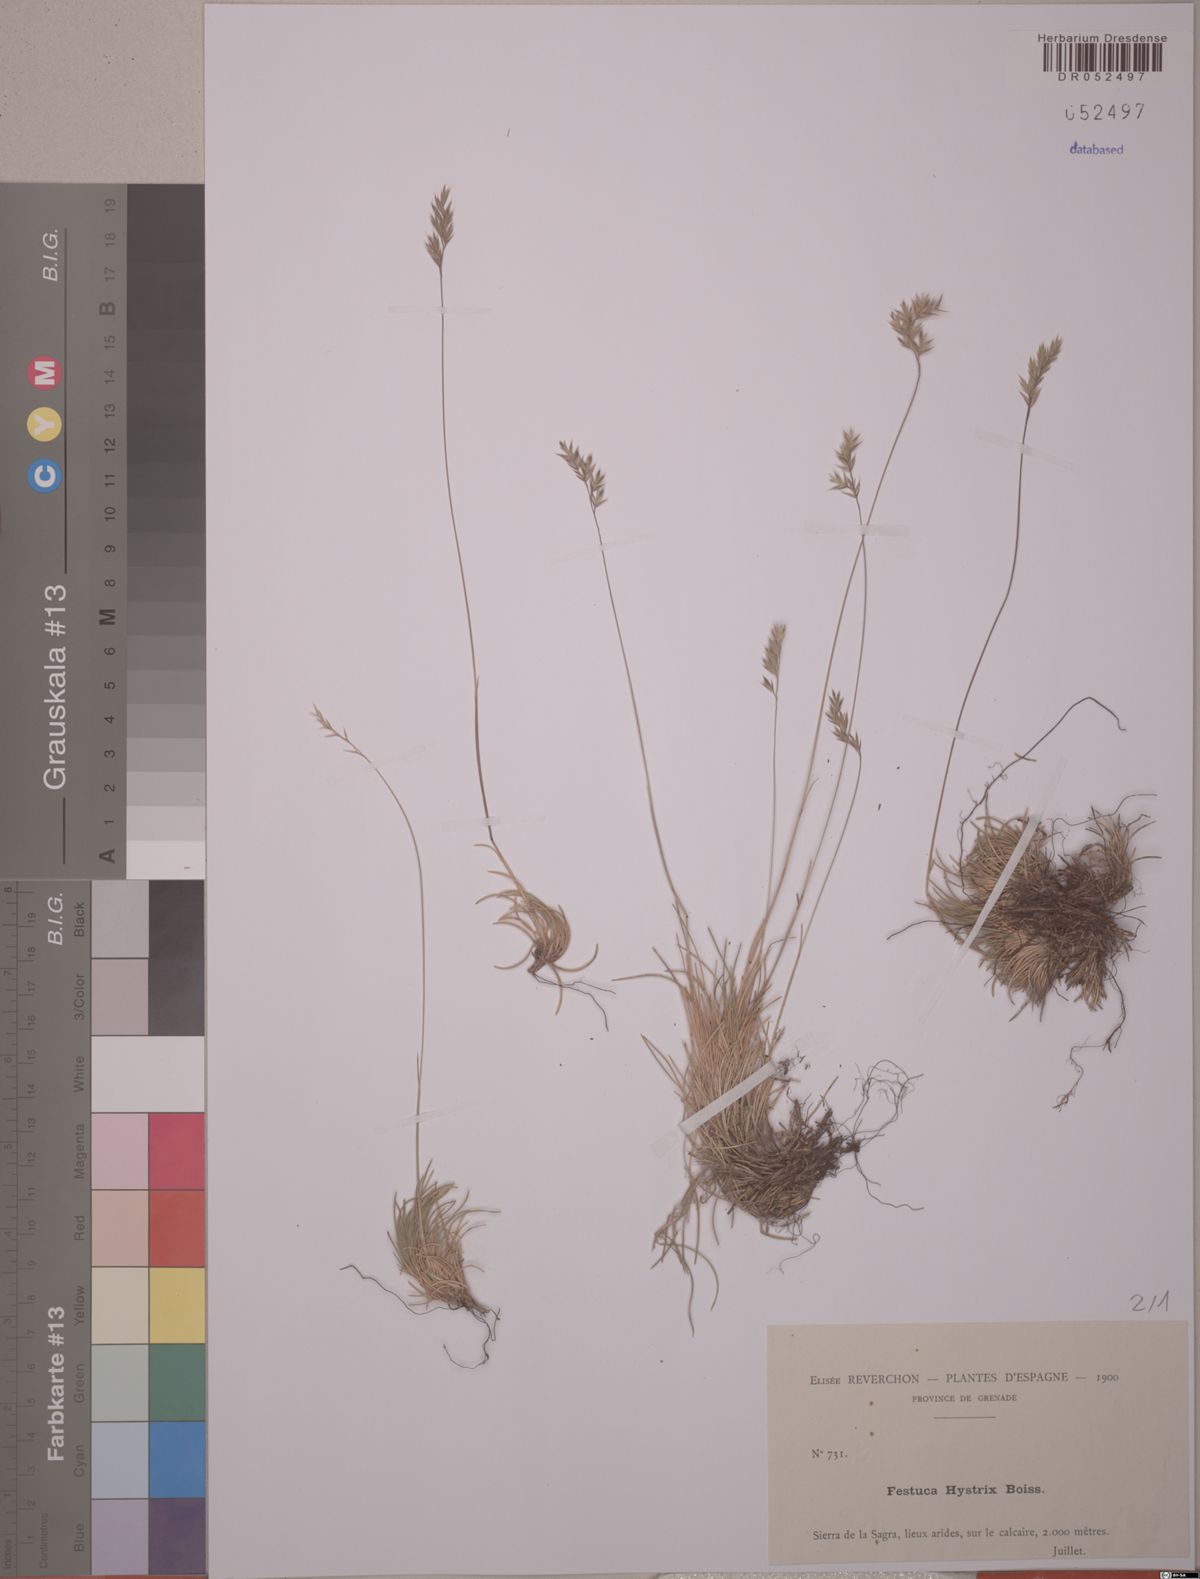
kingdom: Plantae
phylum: Tracheophyta
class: Liliopsida
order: Poales
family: Poaceae
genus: Festuca
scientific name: Festuca hystrix
